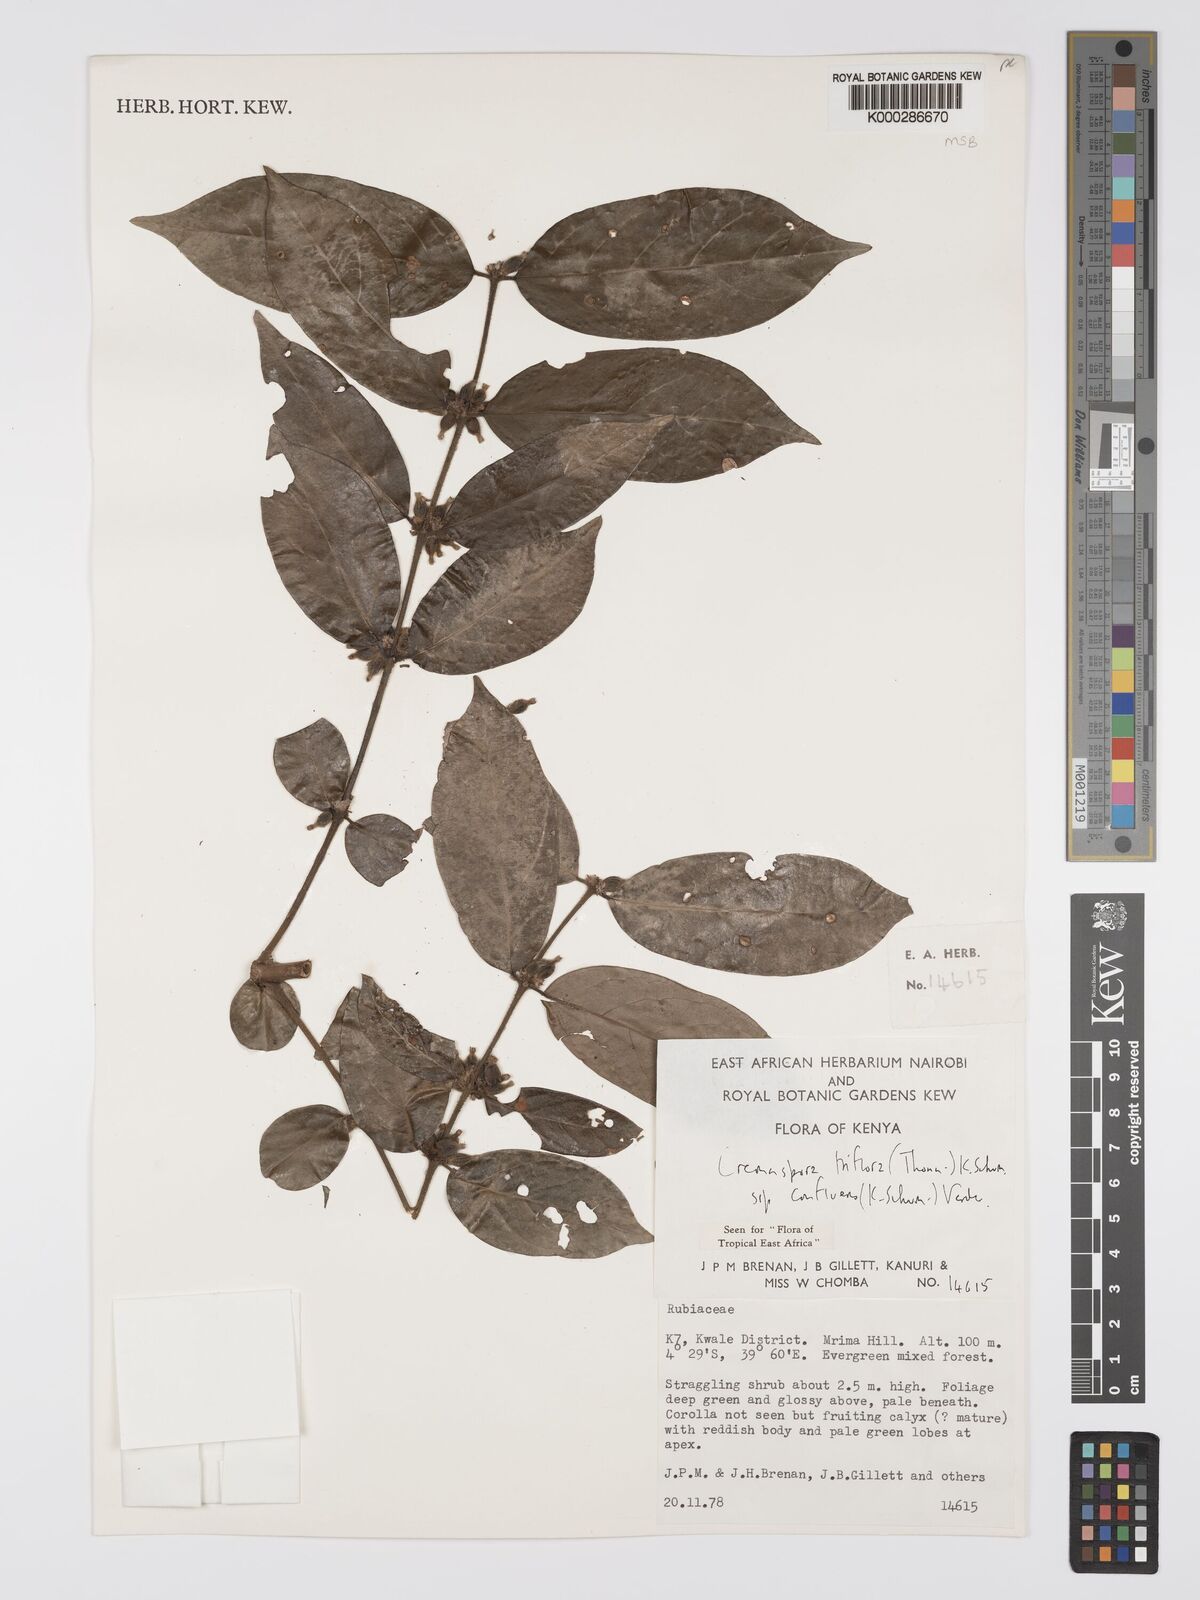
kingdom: Plantae
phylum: Tracheophyta
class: Magnoliopsida
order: Gentianales
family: Rubiaceae
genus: Cremaspora
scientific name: Cremaspora triflora
